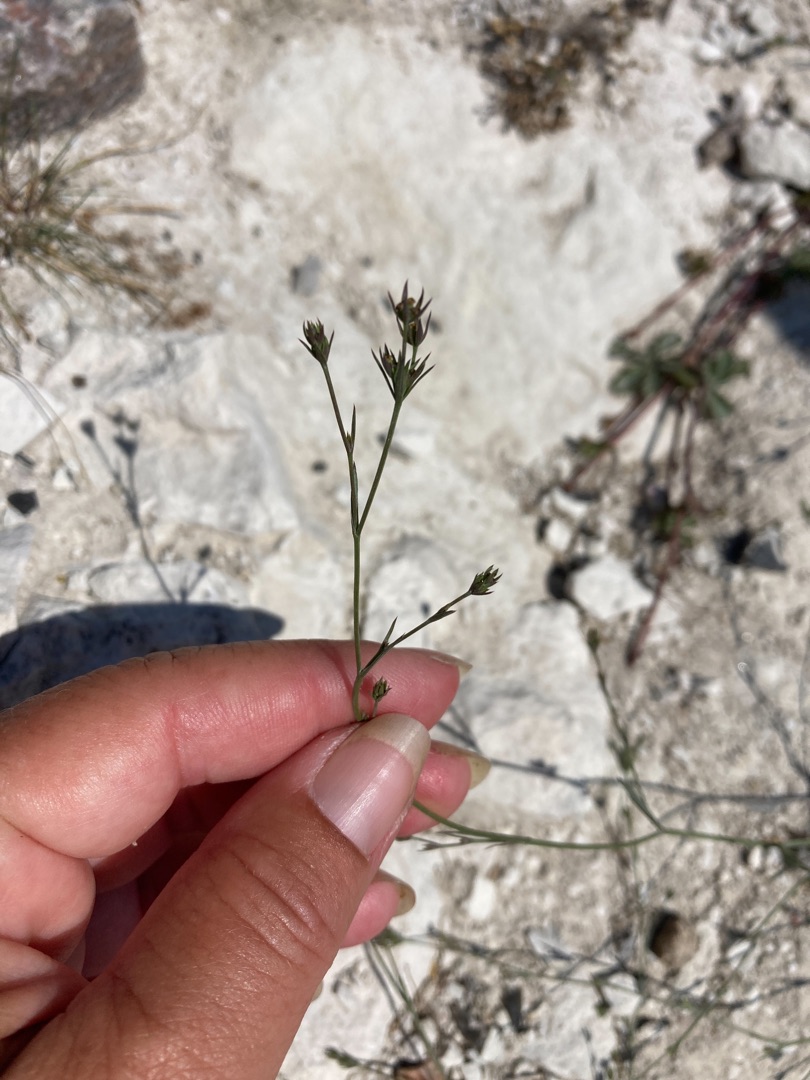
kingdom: Plantae
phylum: Tracheophyta
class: Magnoliopsida
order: Apiales
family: Apiaceae
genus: Bupleurum
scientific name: Bupleurum tenuissimum
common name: Smalbladet hareøre
